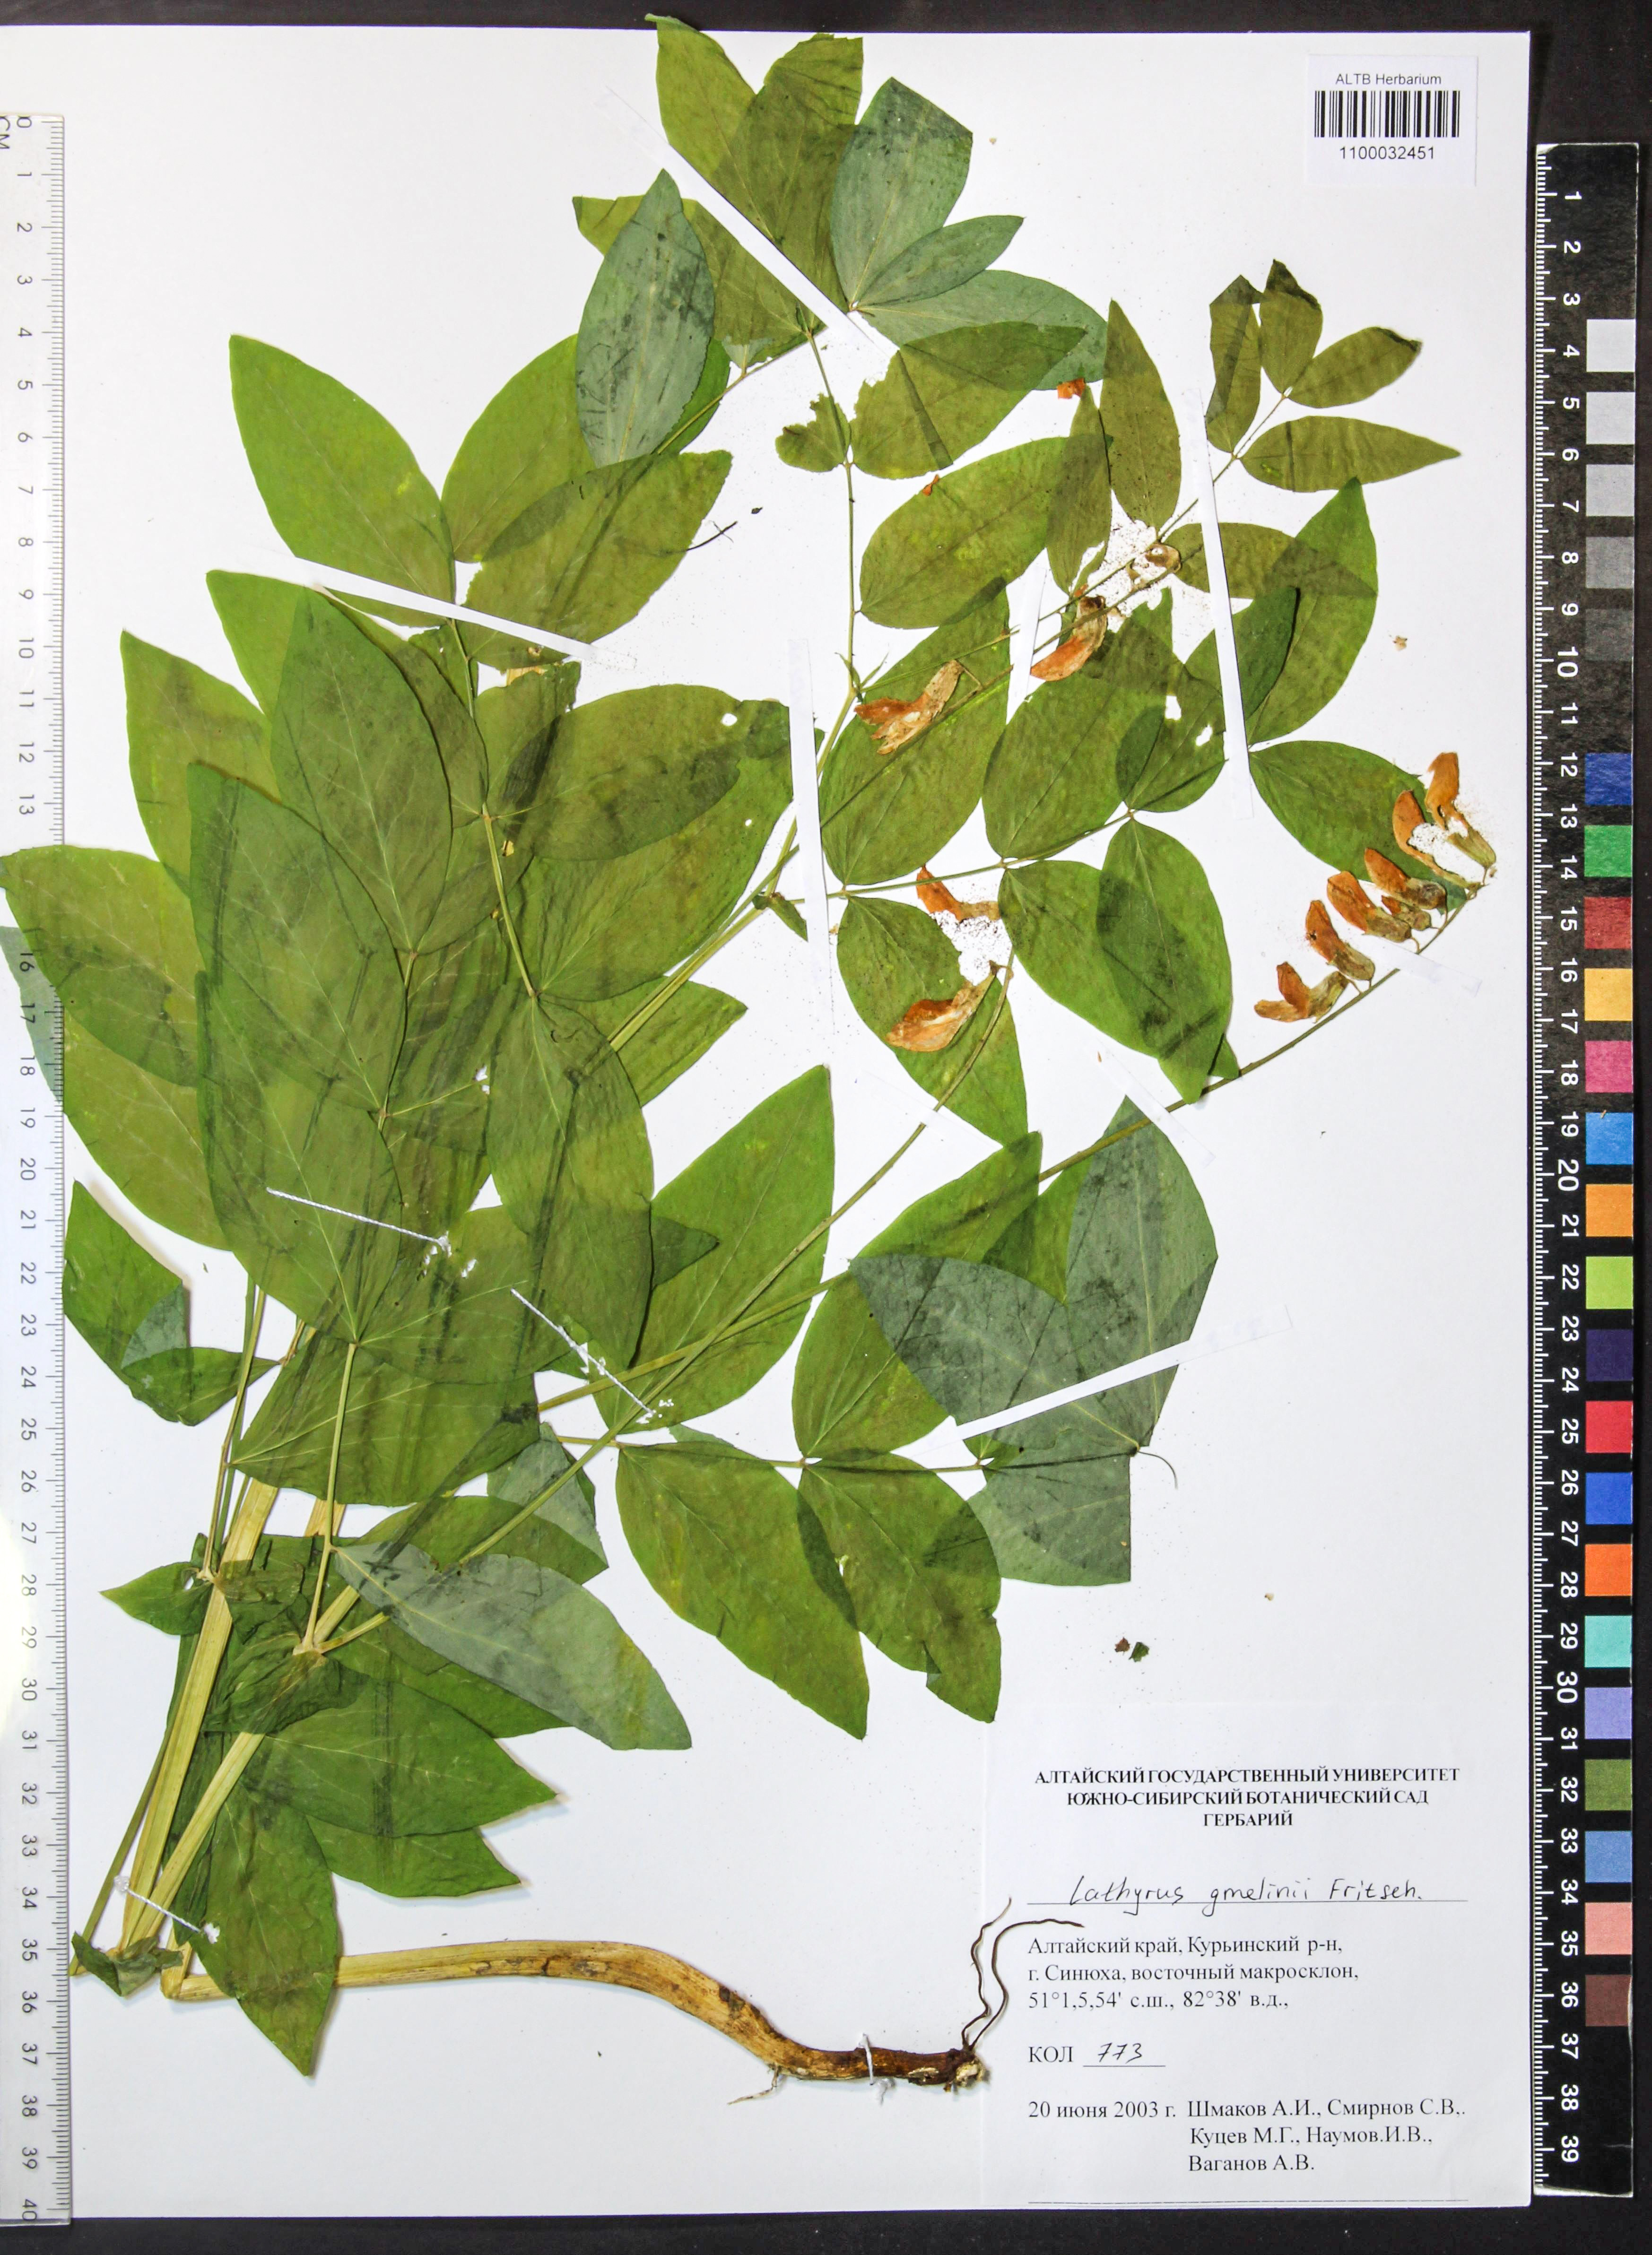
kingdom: Plantae
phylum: Tracheophyta
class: Magnoliopsida
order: Fabales
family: Fabaceae
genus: Lathyrus
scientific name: Lathyrus gmelinii
